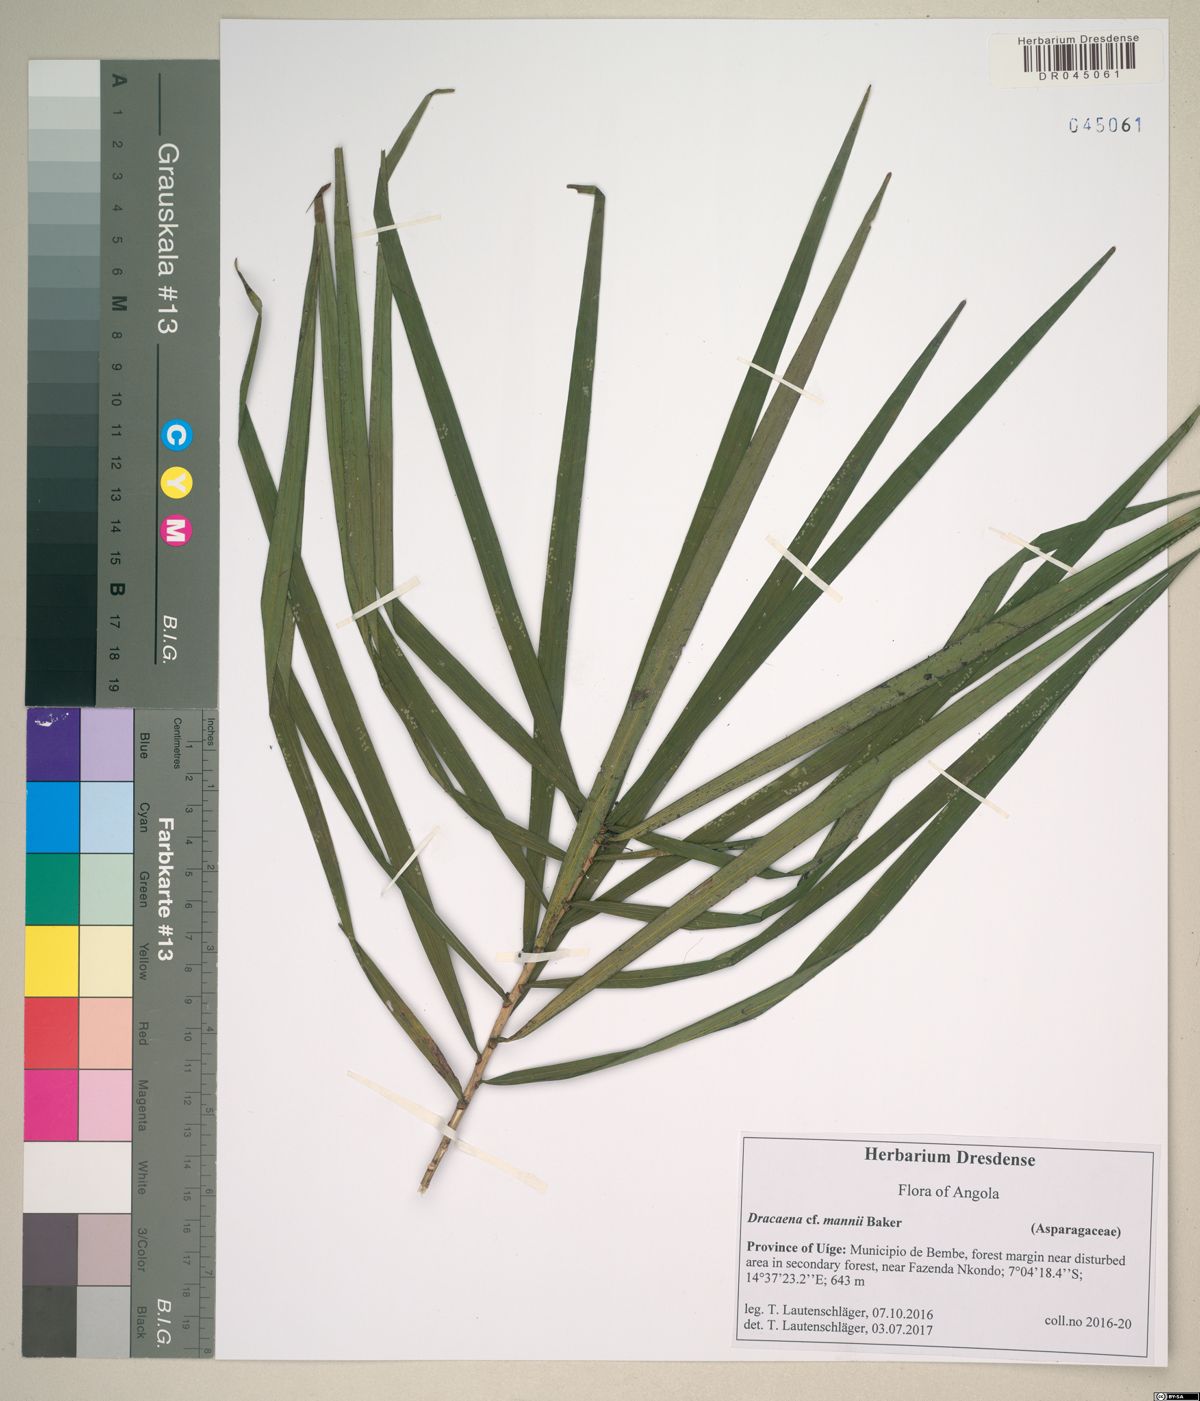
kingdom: Plantae
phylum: Tracheophyta
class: Liliopsida
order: Asparagales
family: Asparagaceae
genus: Dracaena
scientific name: Dracaena mannii
